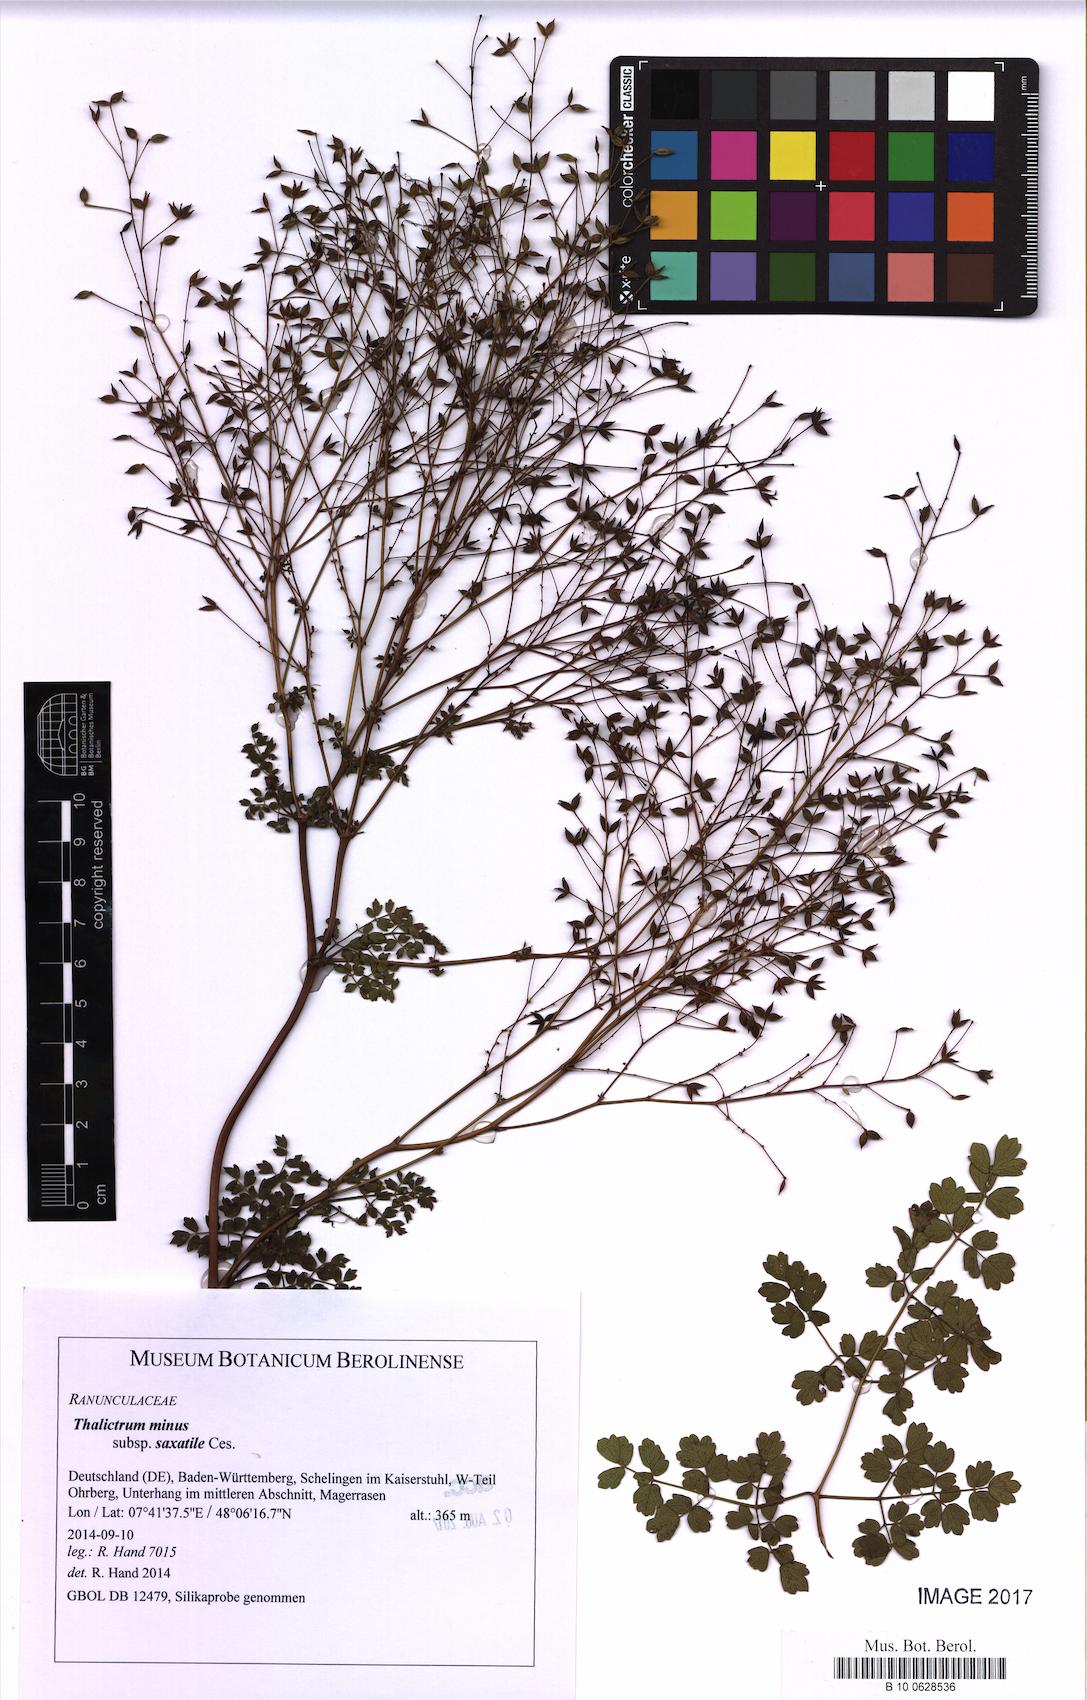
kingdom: Plantae
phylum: Tracheophyta
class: Magnoliopsida
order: Ranunculales
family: Ranunculaceae
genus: Thalictrum
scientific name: Thalictrum minus
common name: Lesser meadow-rue
